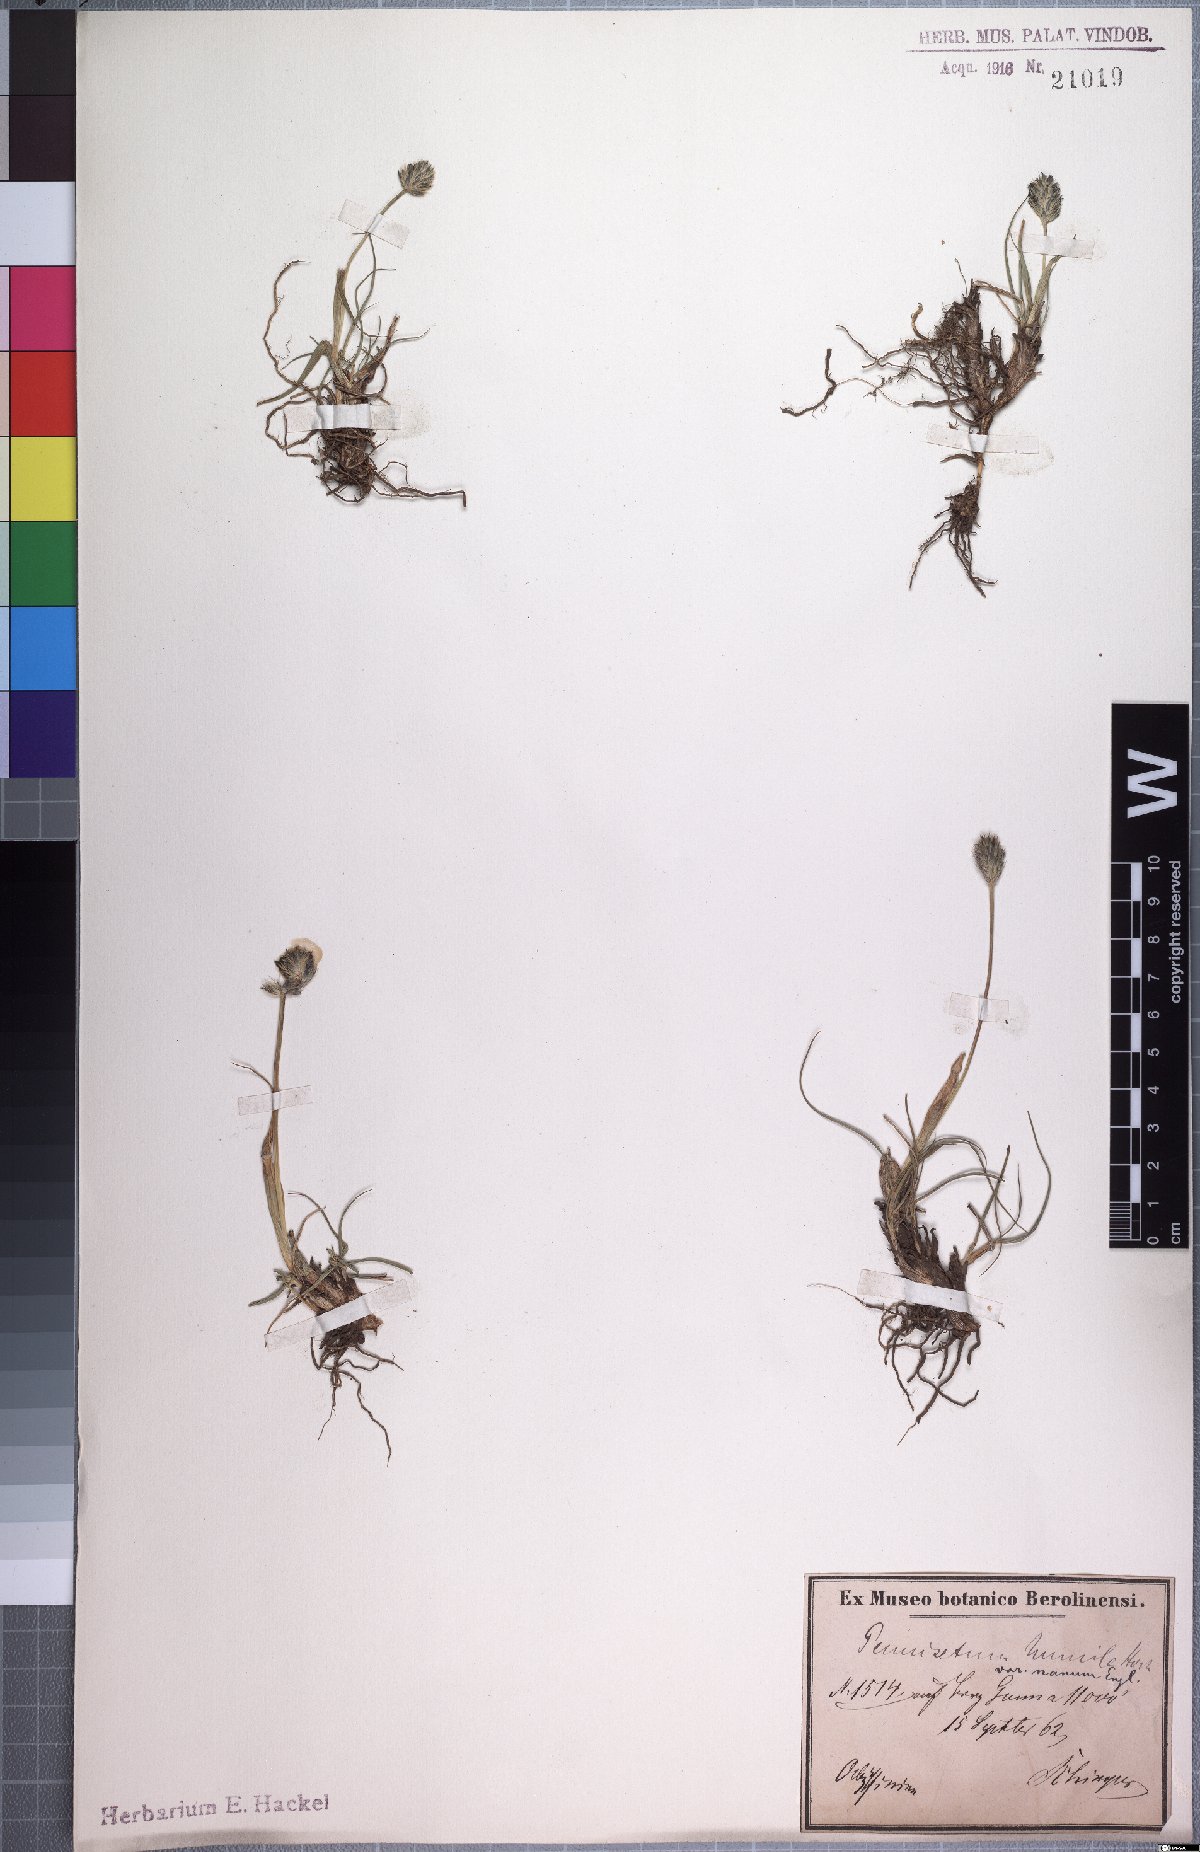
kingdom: Plantae
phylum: Tracheophyta
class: Liliopsida
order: Poales
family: Poaceae
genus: Cenchrus
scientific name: Cenchrus nanus
